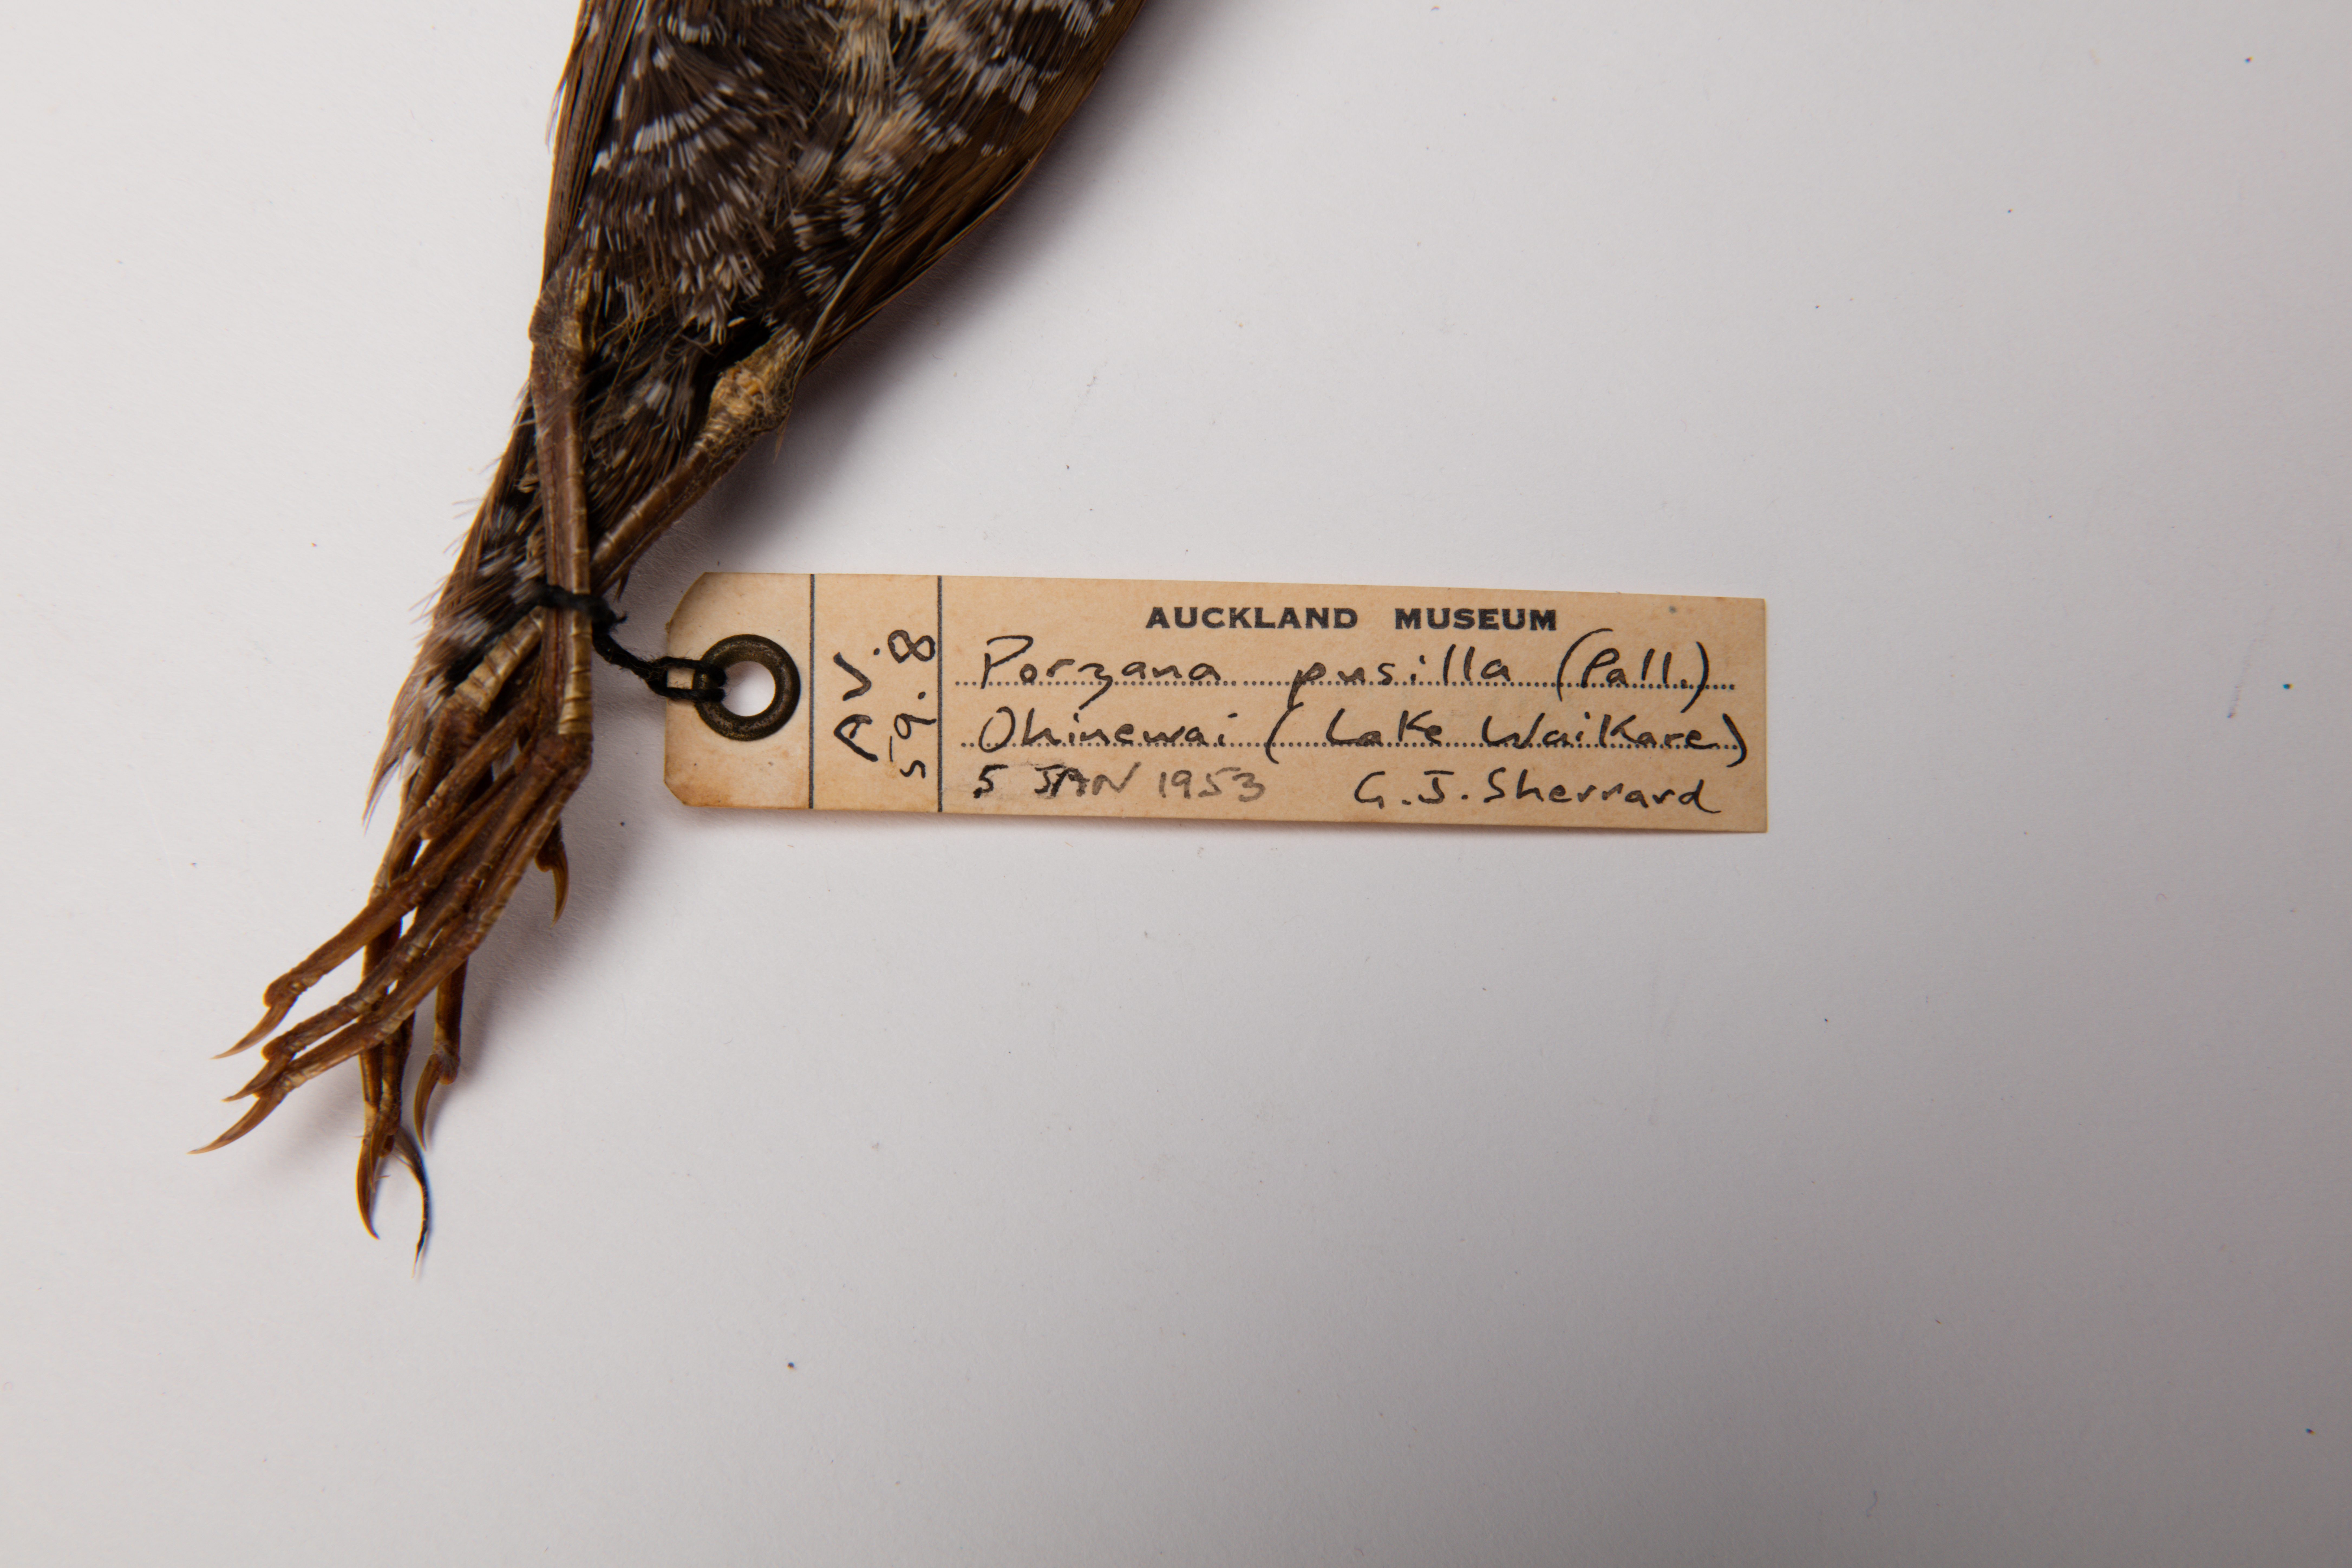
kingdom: Animalia
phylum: Chordata
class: Aves
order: Gruiformes
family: Rallidae
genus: Porzana
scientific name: Porzana pusilla
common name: Baillon's crake
